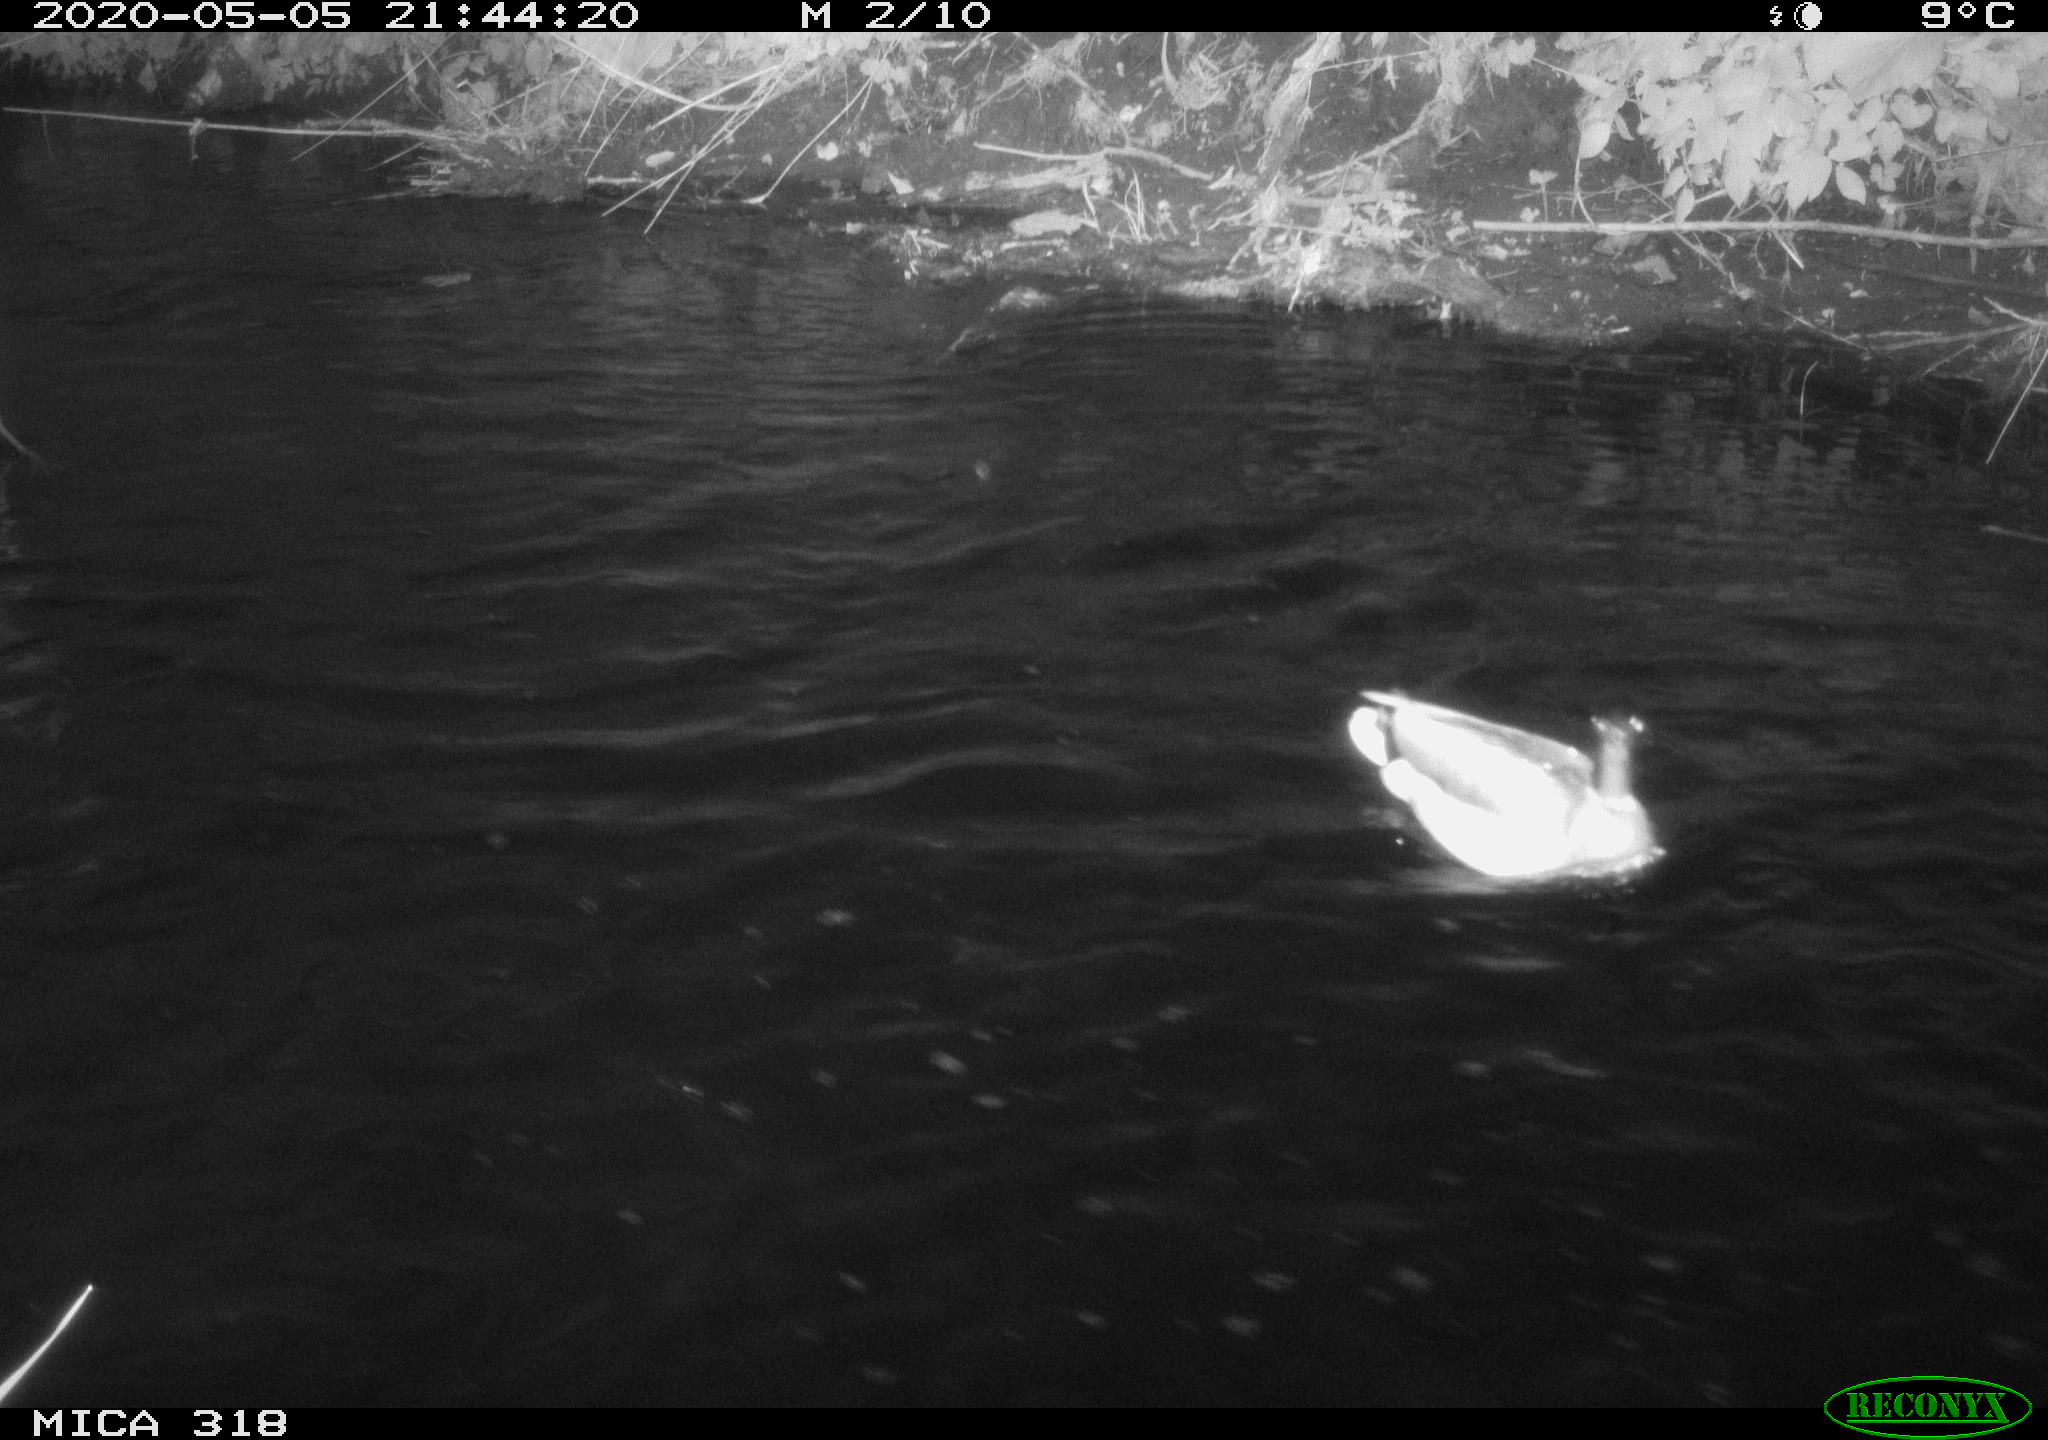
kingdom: Animalia
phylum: Chordata
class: Aves
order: Pelecaniformes
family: Ardeidae
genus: Ardea
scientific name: Ardea cinerea
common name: Grey heron
